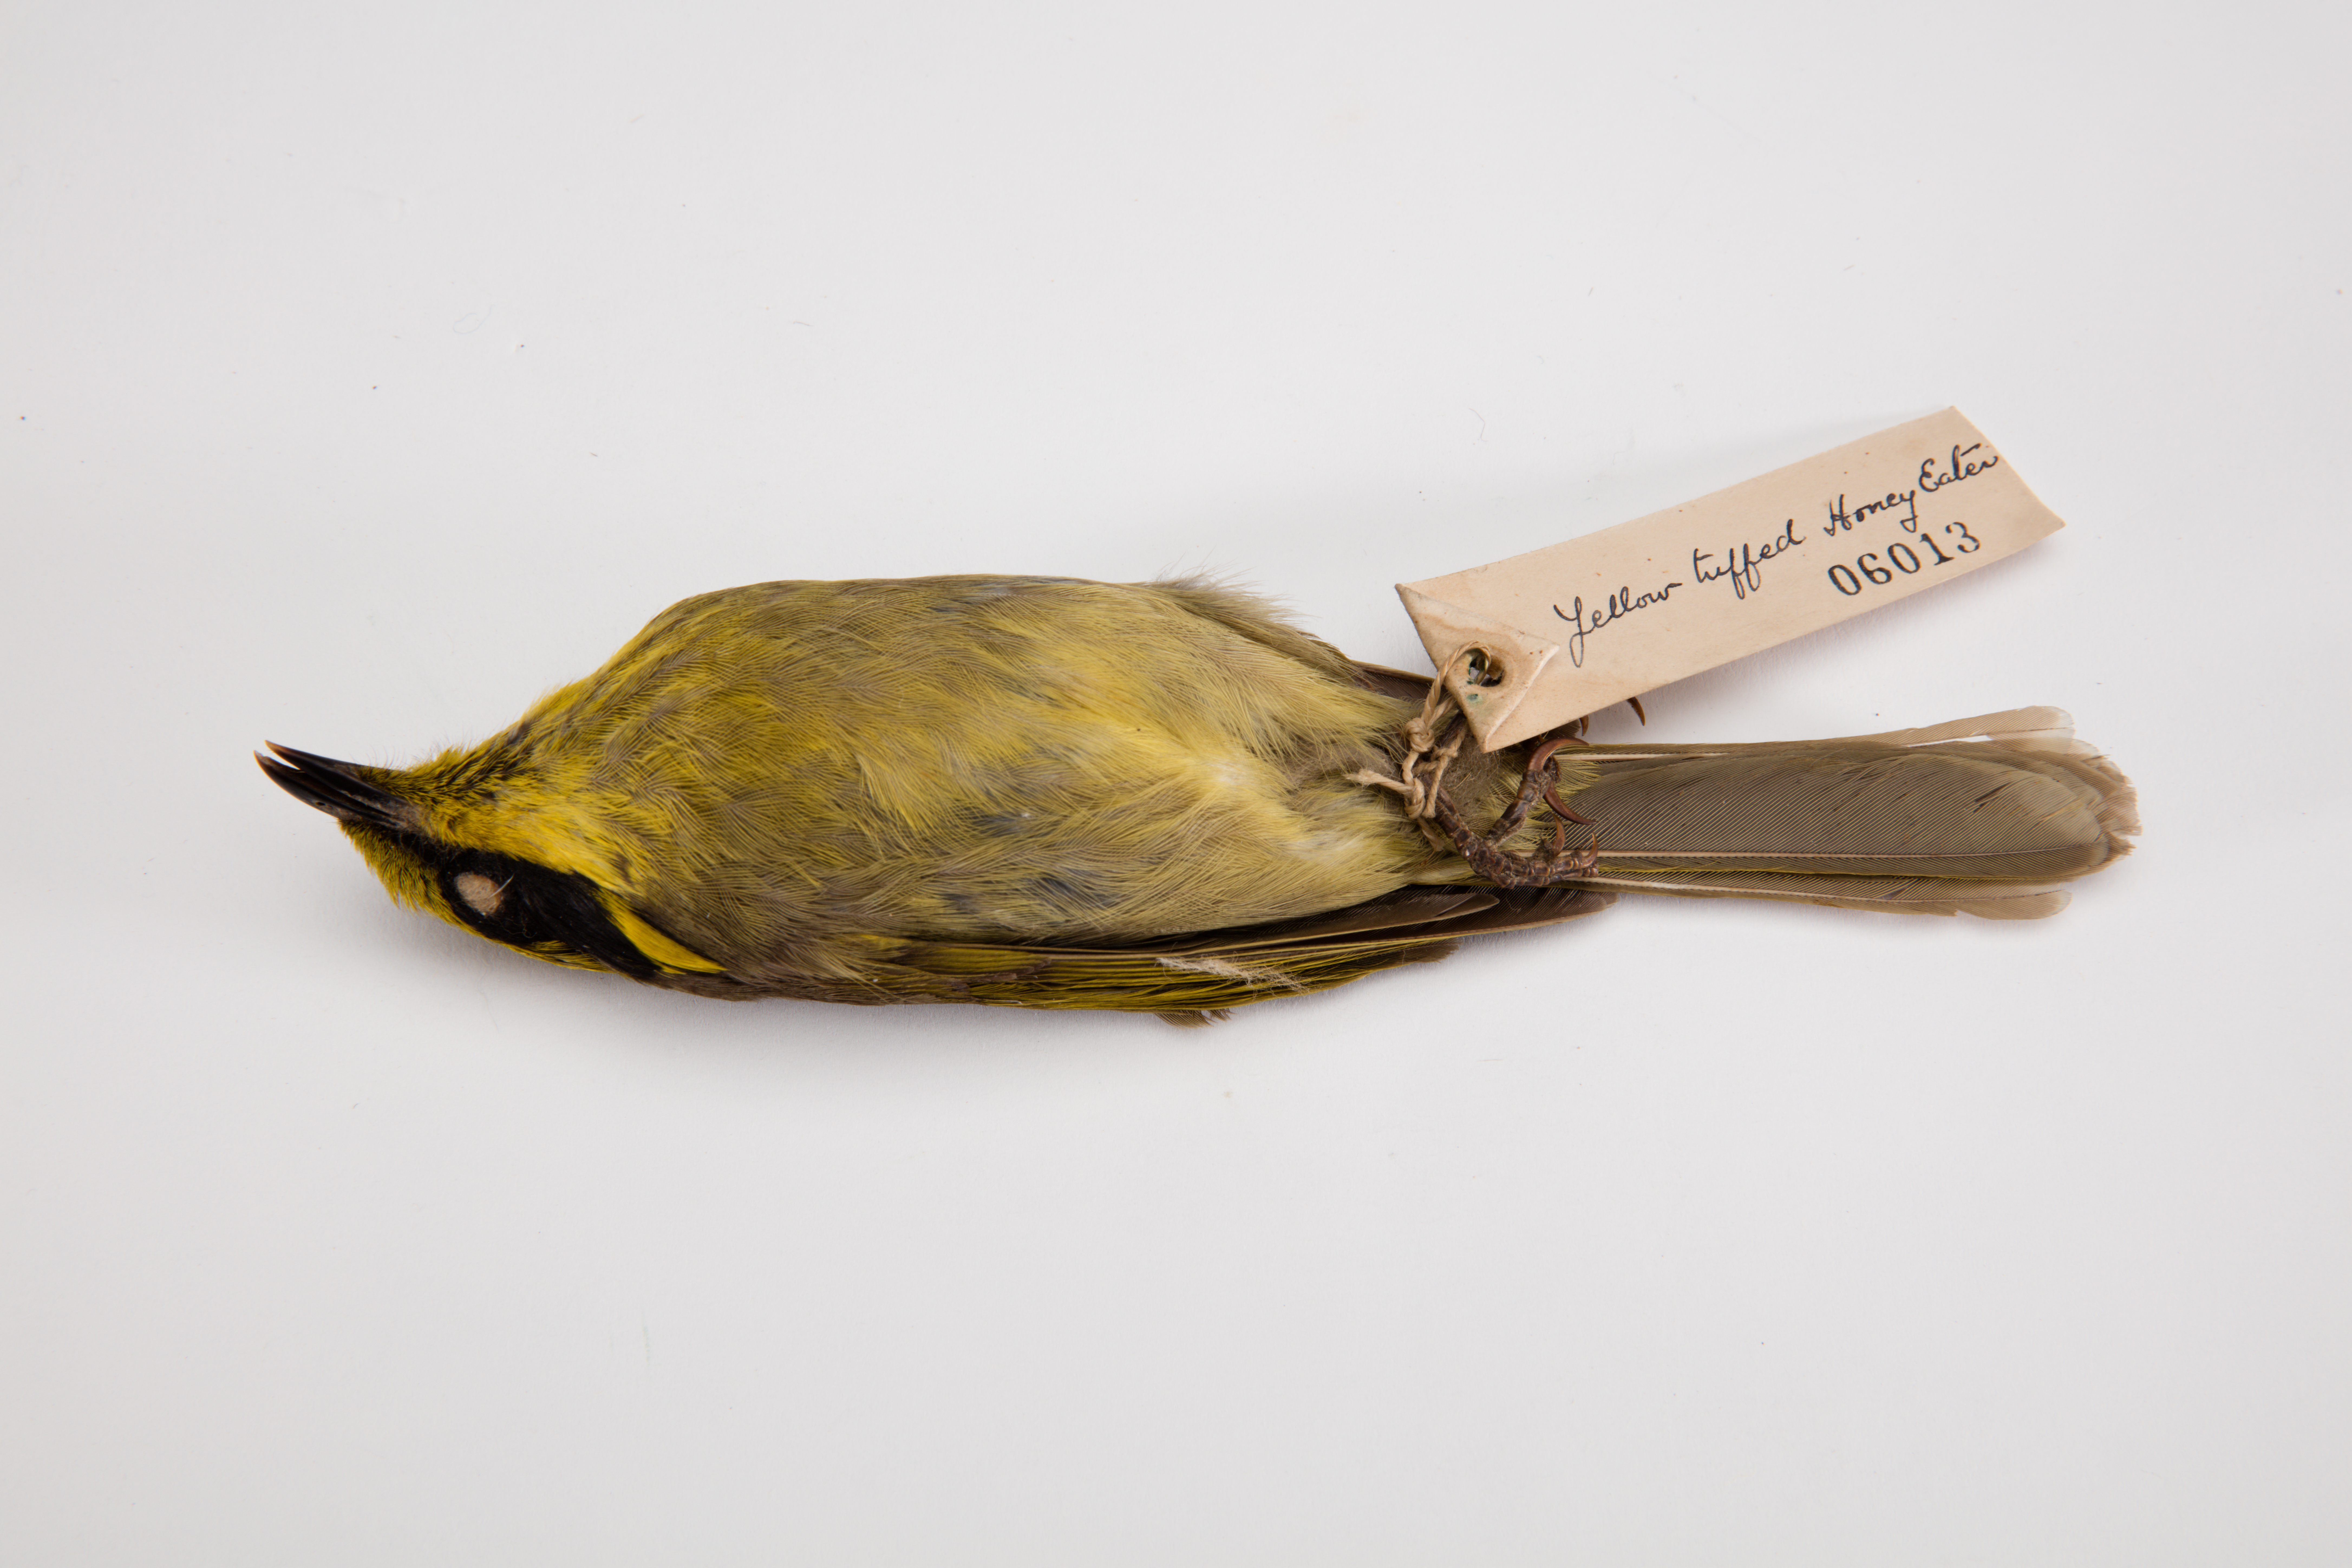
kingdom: Animalia
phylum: Chordata
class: Aves
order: Passeriformes
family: Meliphagidae
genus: Meliphaga
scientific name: Meliphaga
